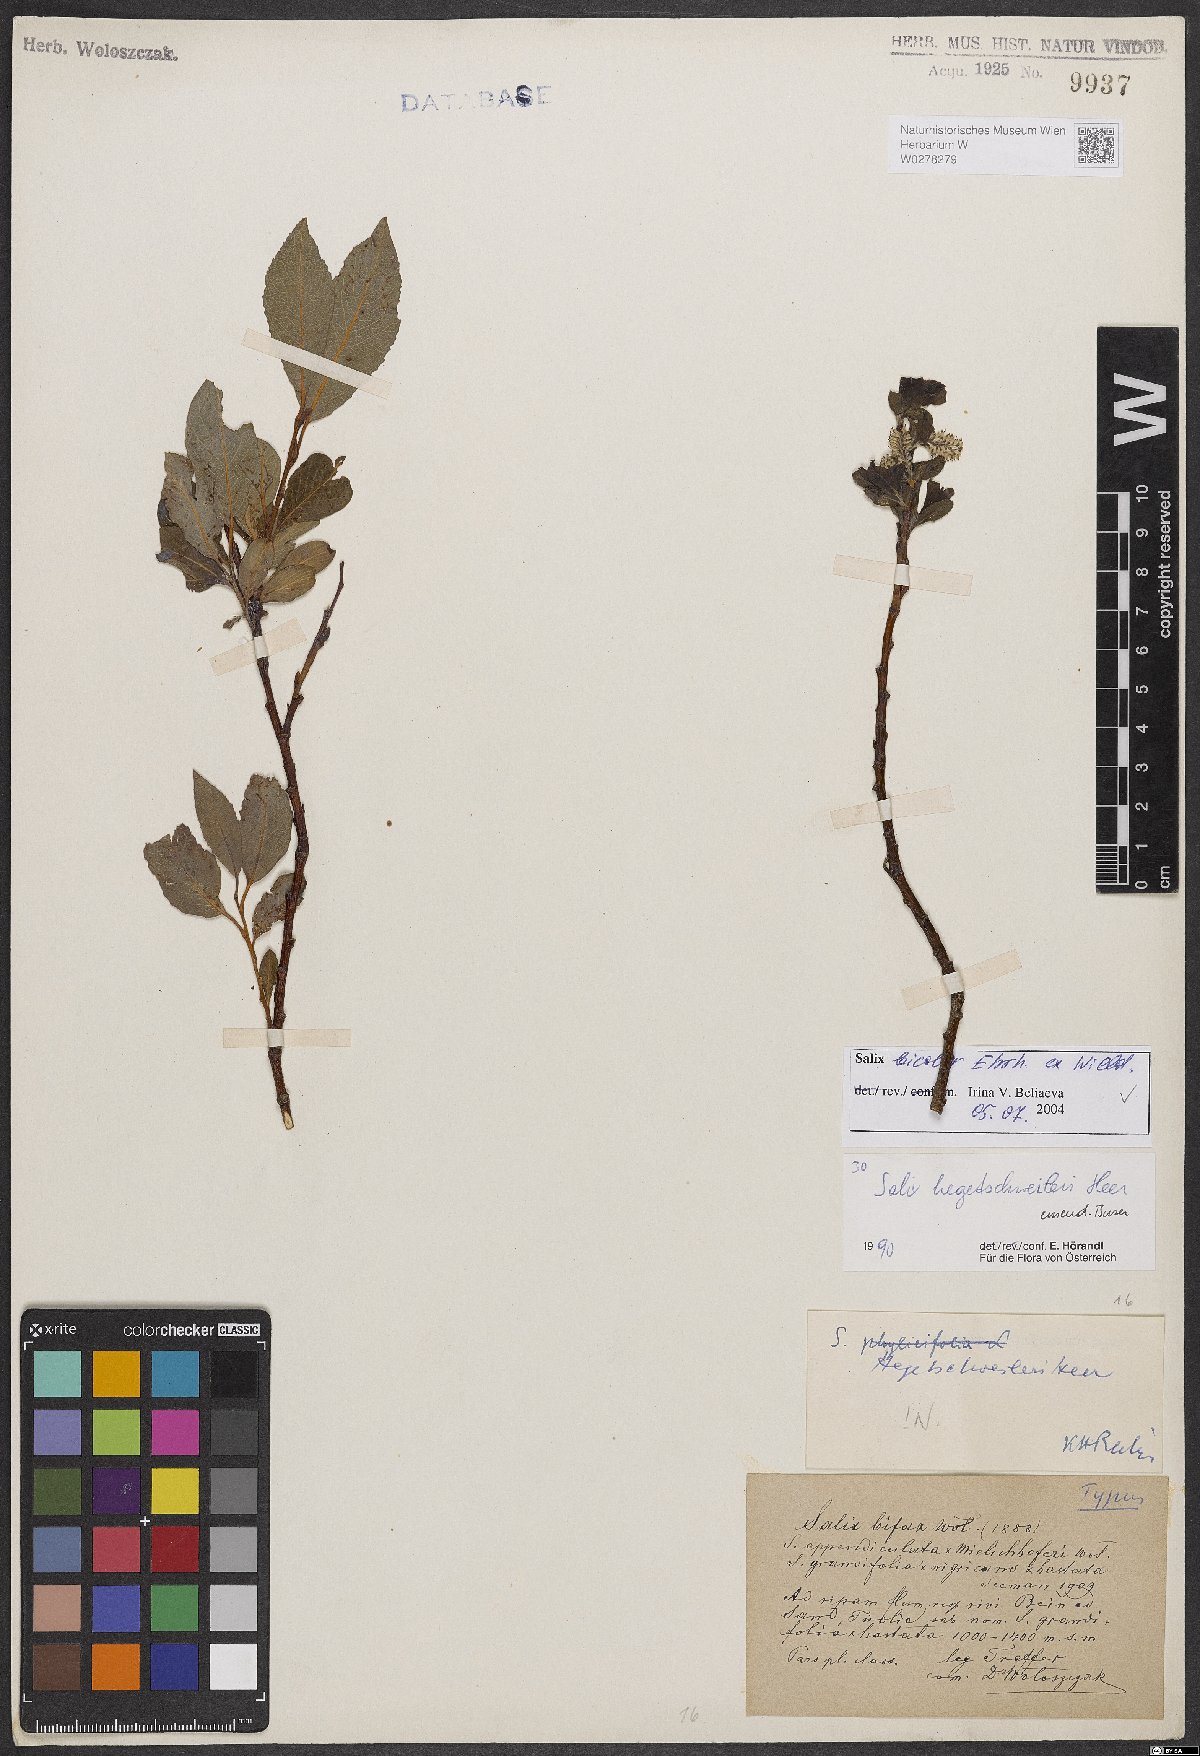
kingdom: Plantae
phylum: Tracheophyta
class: Magnoliopsida
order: Malpighiales
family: Salicaceae
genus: Salix
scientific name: Salix bicolor
